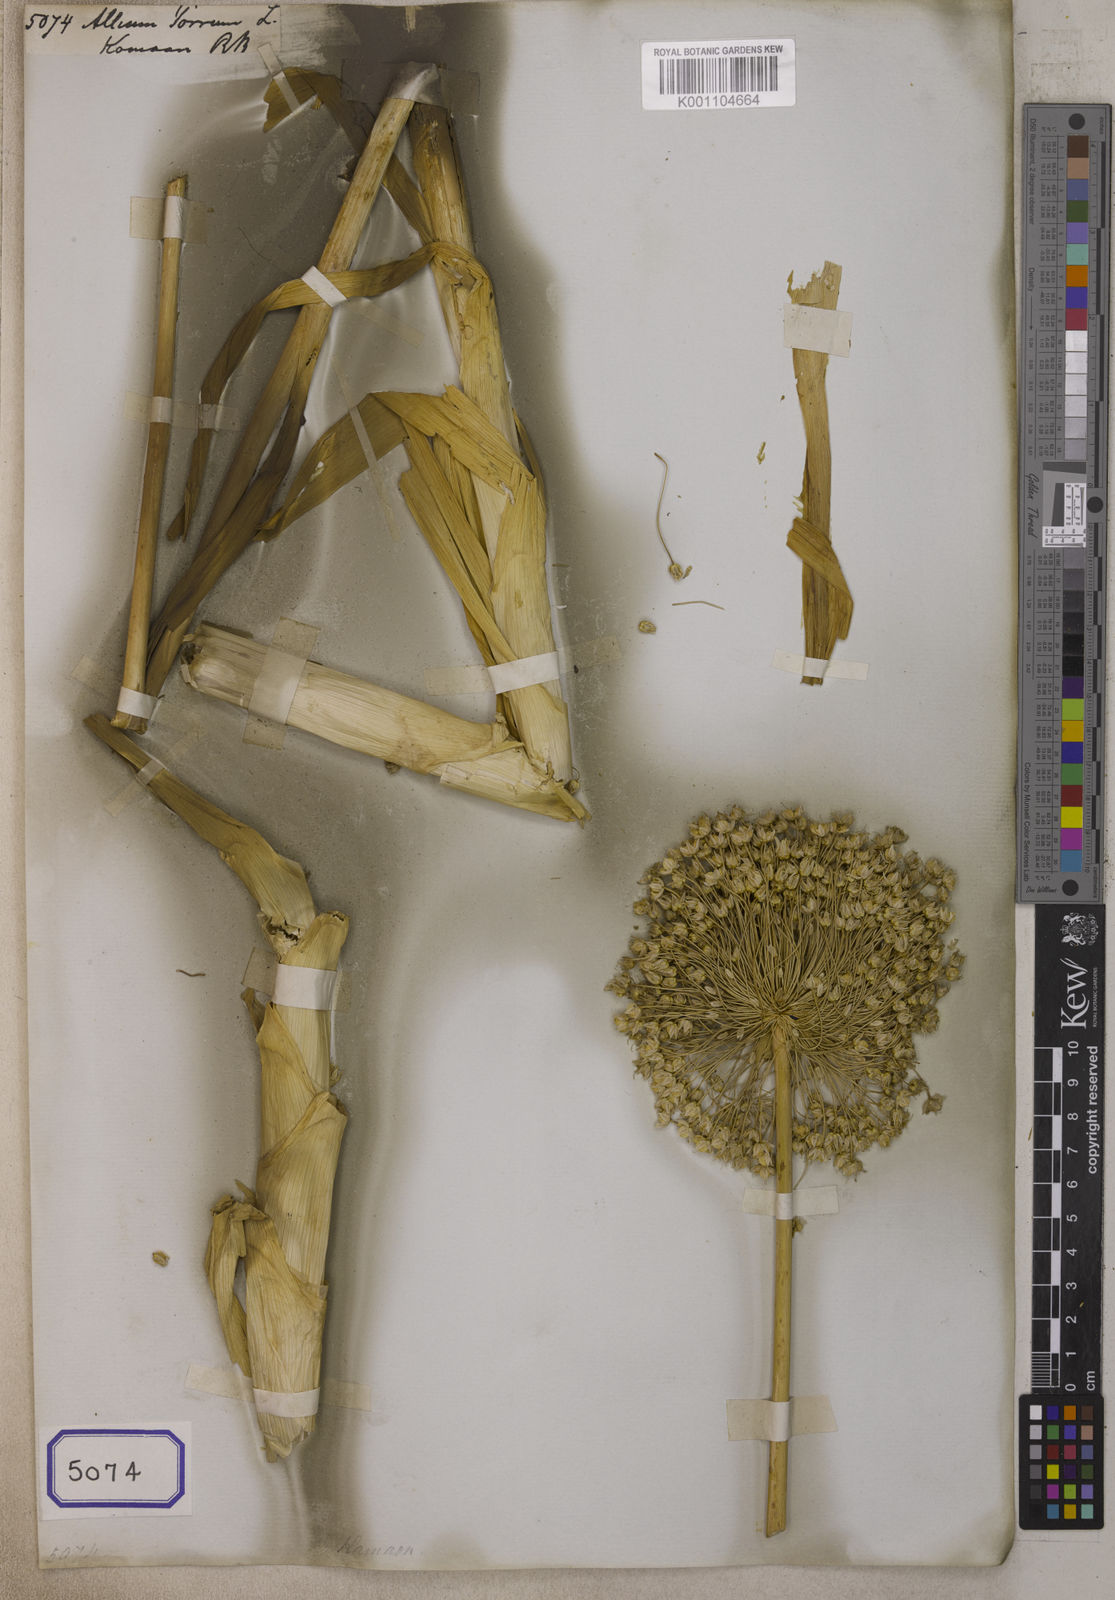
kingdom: Plantae
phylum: Tracheophyta
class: Liliopsida
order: Asparagales
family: Amaryllidaceae
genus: Allium
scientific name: Allium ampeloprasum
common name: Wild leek
